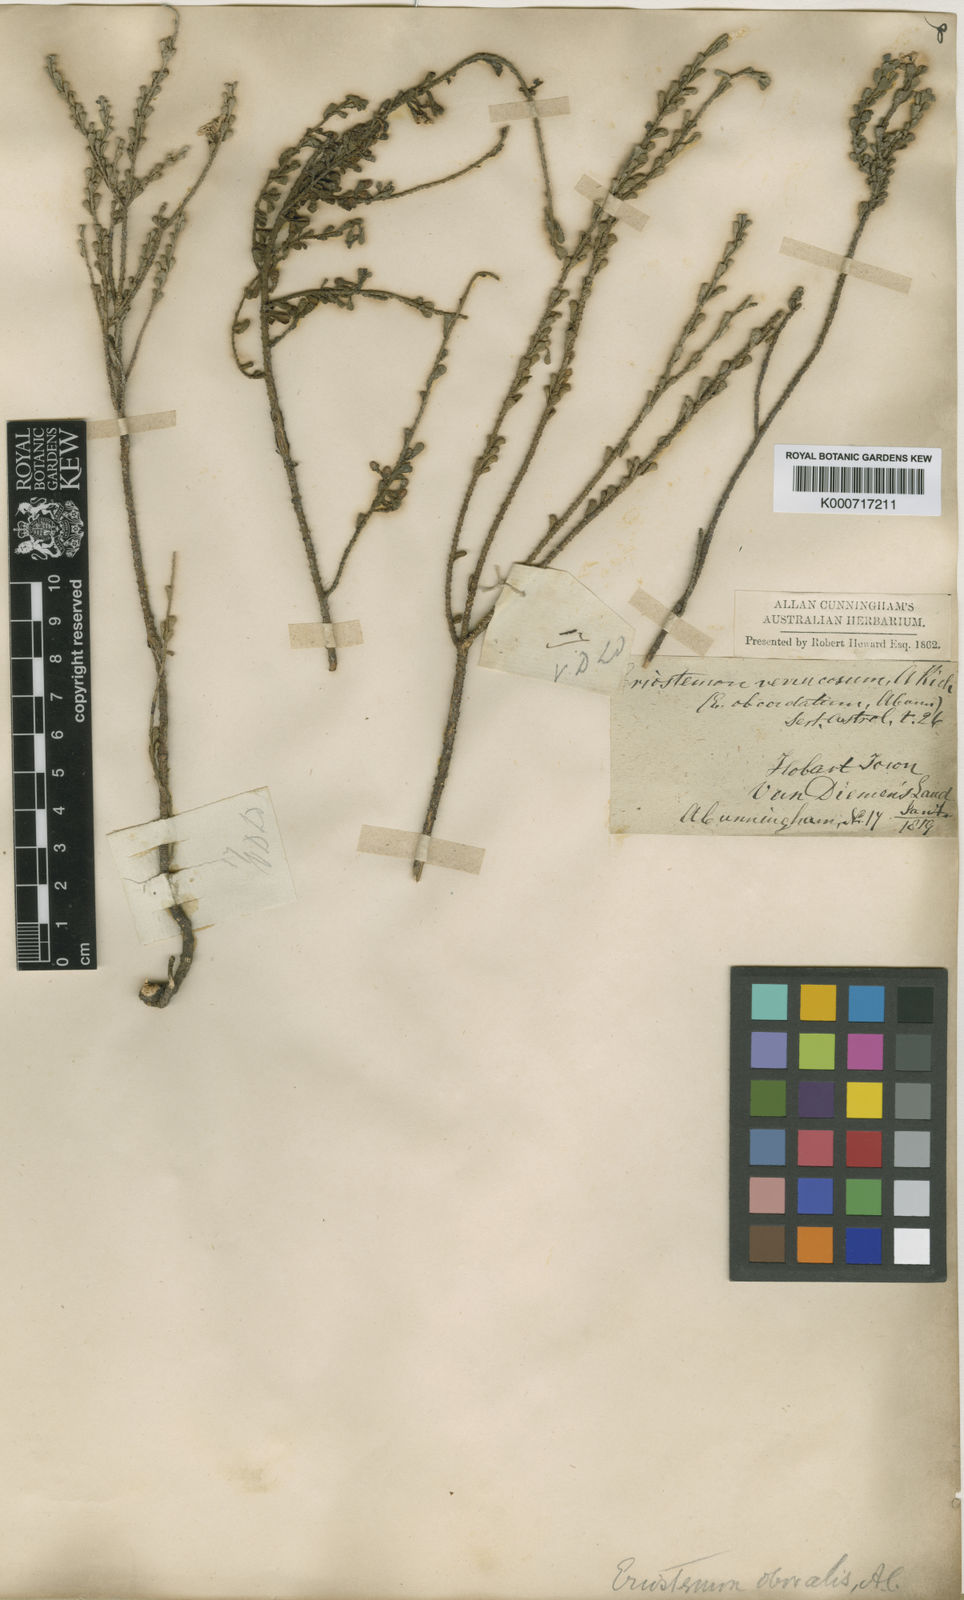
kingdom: Plantae
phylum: Tracheophyta
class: Magnoliopsida
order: Sapindales
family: Rutaceae
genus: Philotheca
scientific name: Philotheca verrucosa
